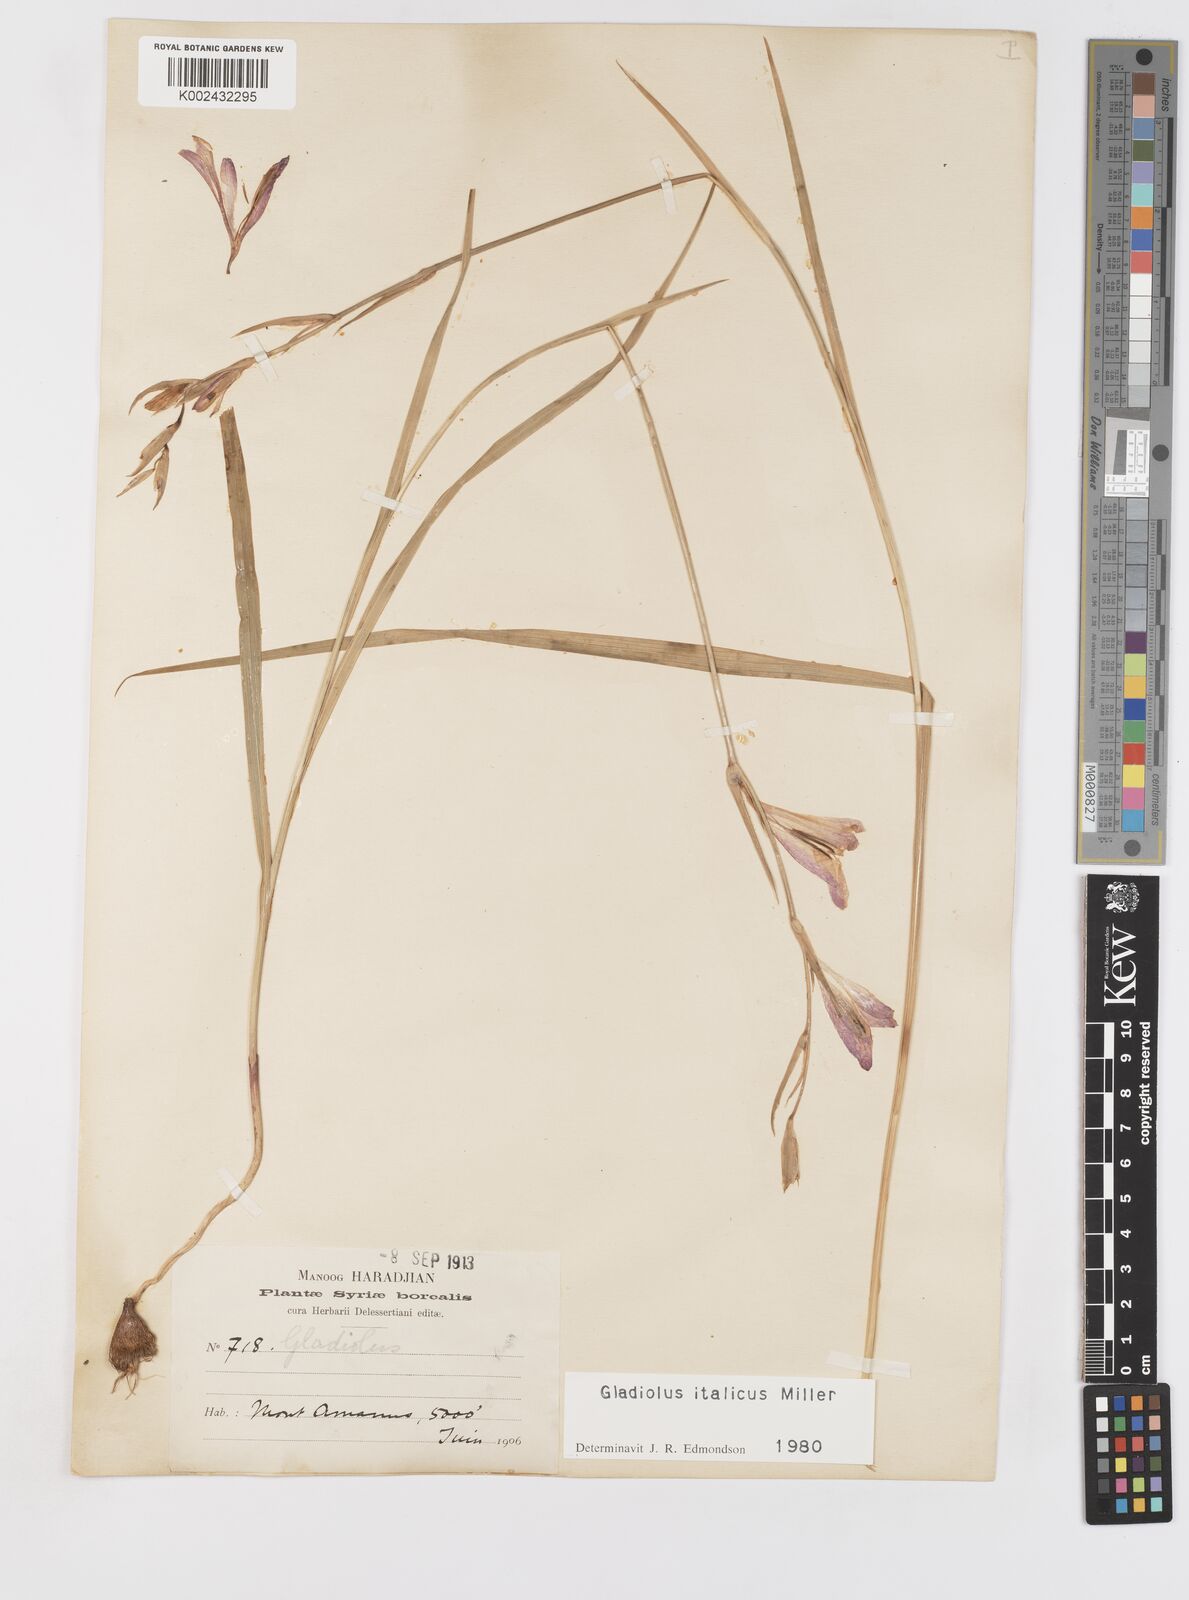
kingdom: Plantae
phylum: Tracheophyta
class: Liliopsida
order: Asparagales
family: Iridaceae
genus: Gladiolus
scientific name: Gladiolus italicus
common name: Field gladiolus
